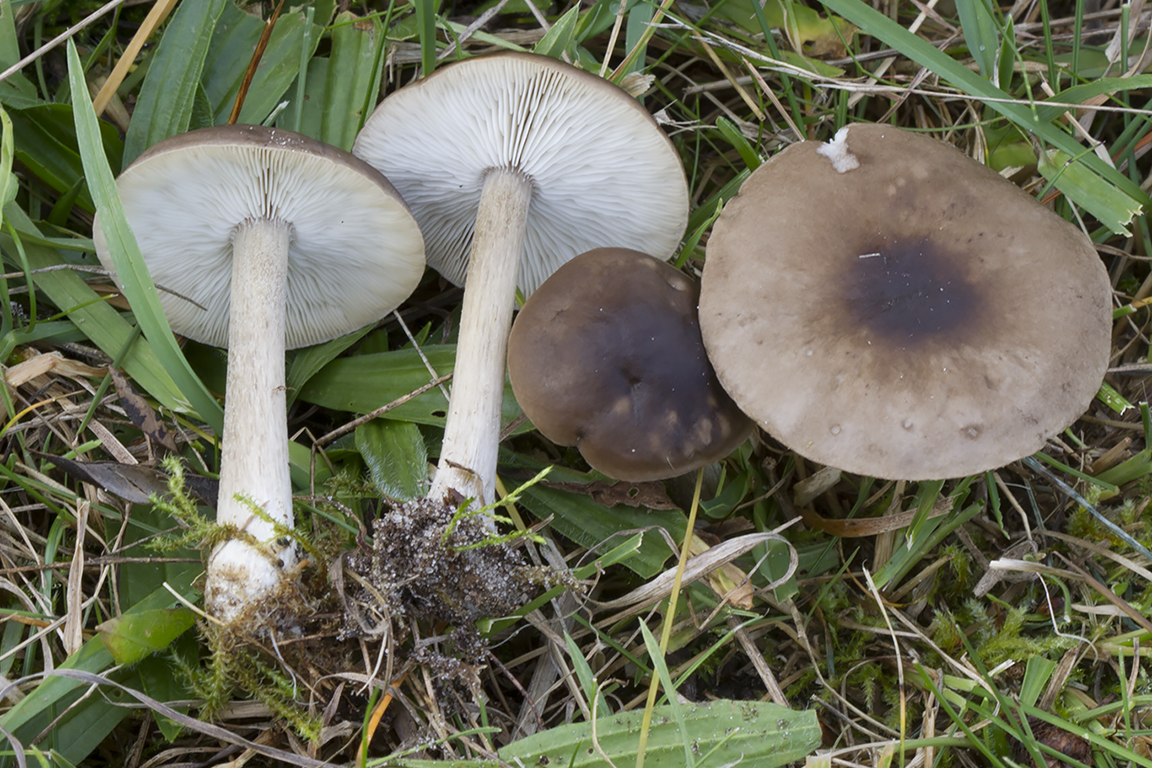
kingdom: Fungi
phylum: Basidiomycota
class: Agaricomycetes
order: Agaricales
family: Tricholomataceae
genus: Melanoleuca
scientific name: Melanoleuca bataillei
